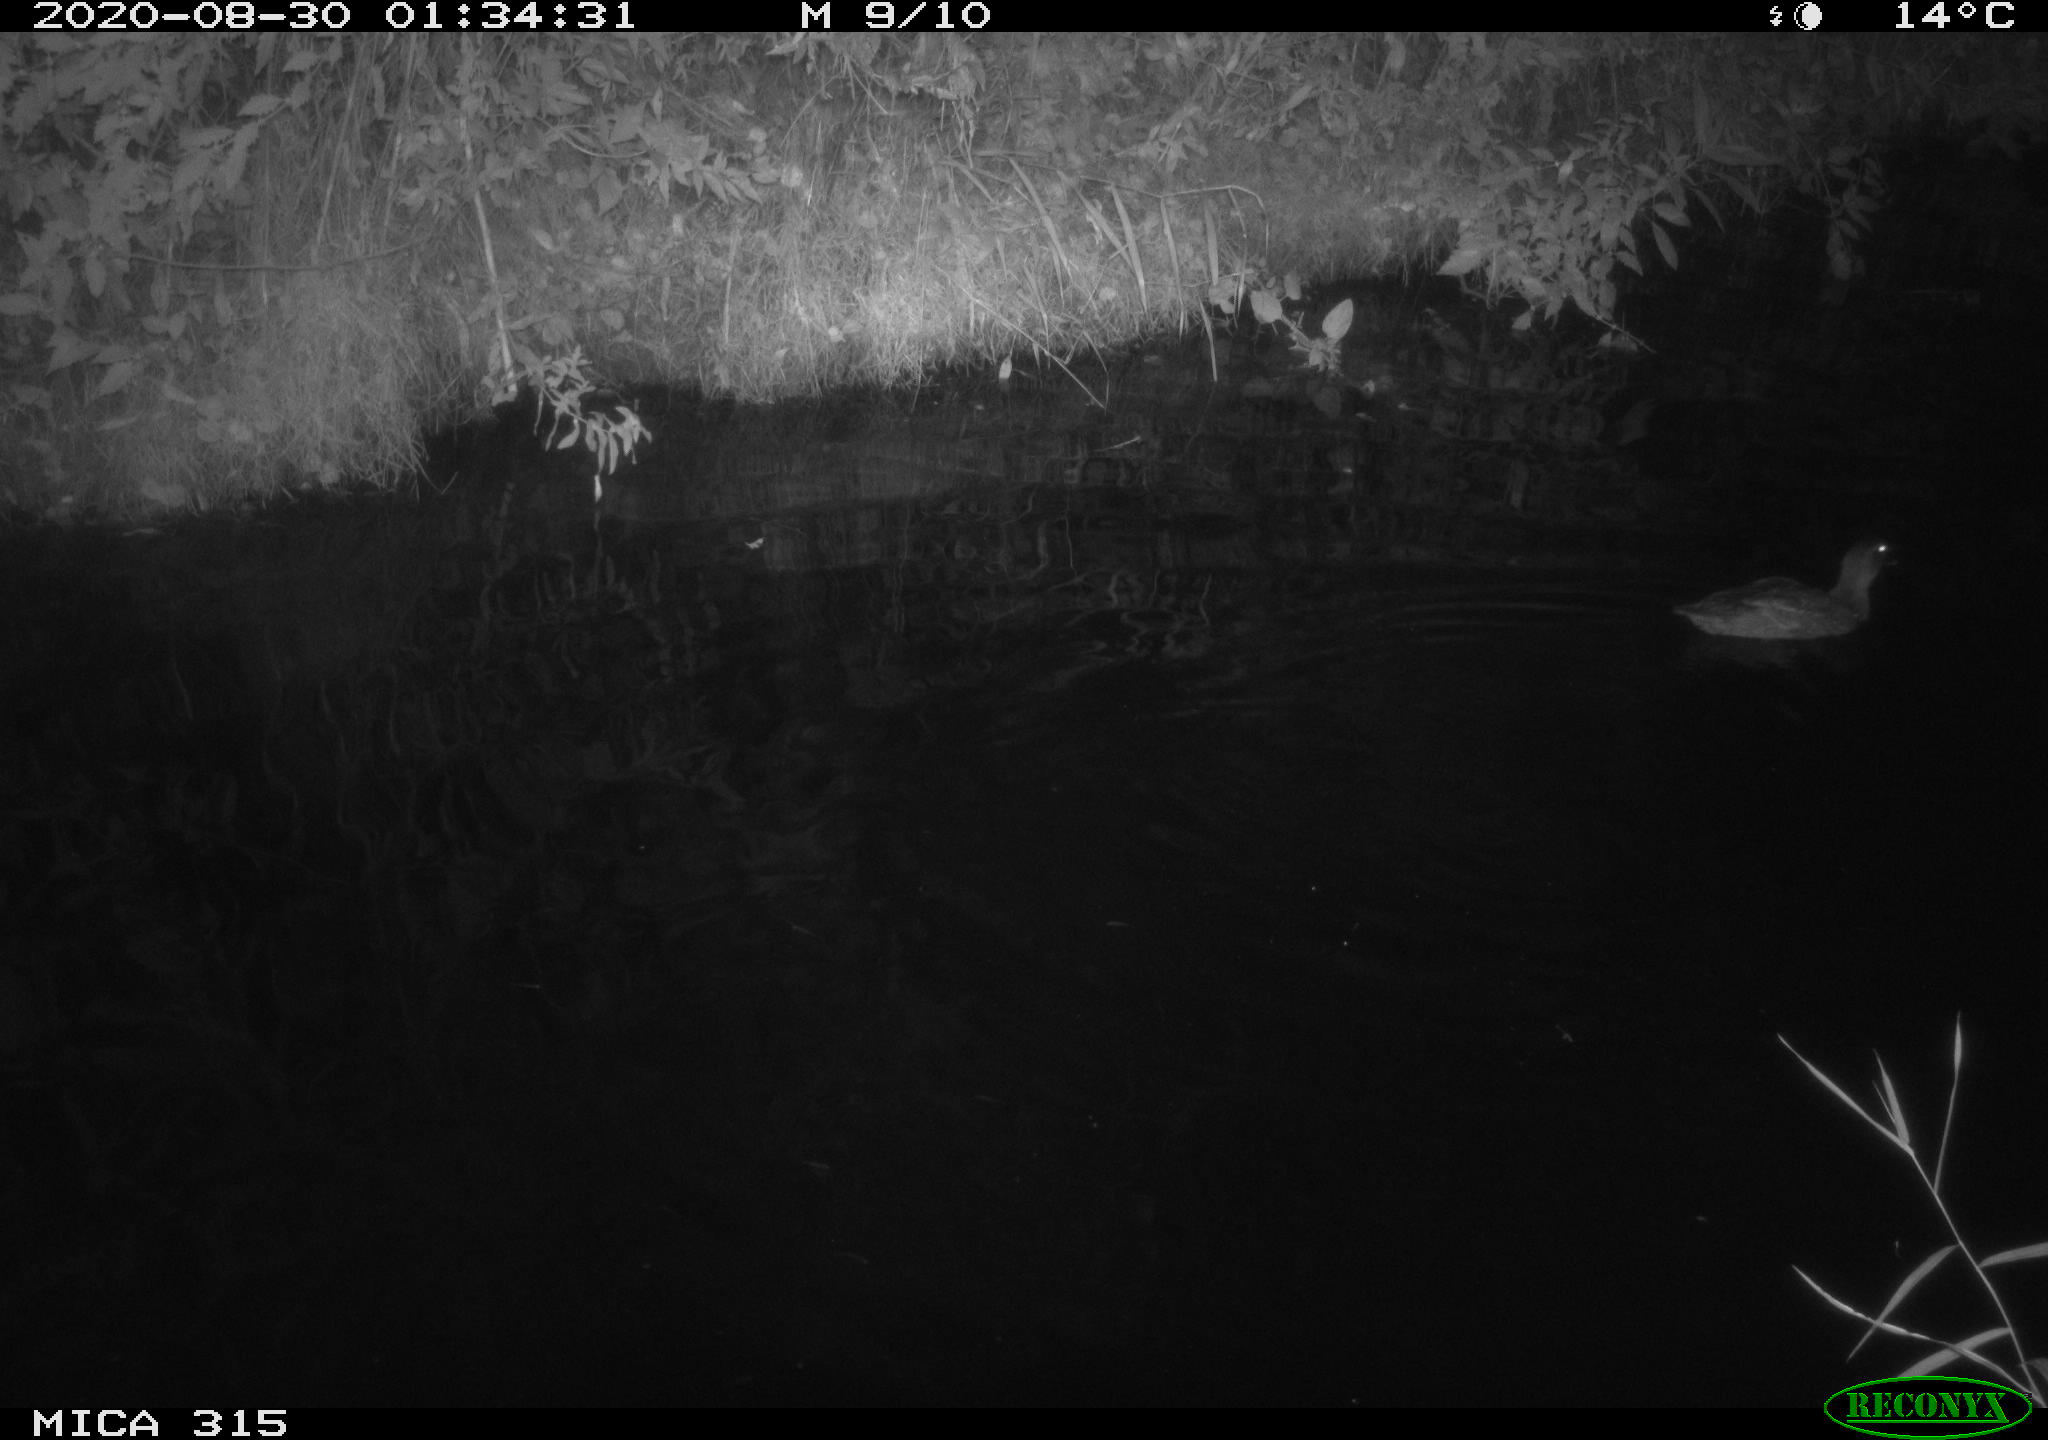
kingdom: Animalia
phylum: Chordata
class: Aves
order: Anseriformes
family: Anatidae
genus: Anas
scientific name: Anas platyrhynchos
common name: Mallard
